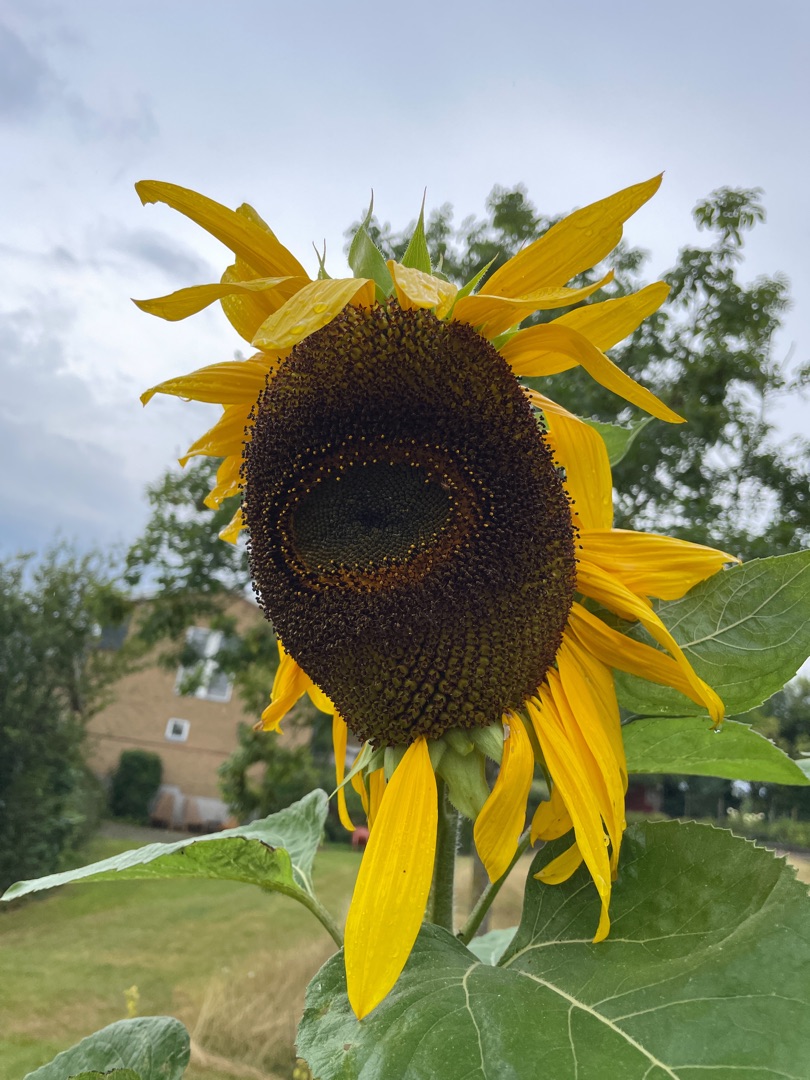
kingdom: Plantae
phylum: Tracheophyta
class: Magnoliopsida
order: Asterales
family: Asteraceae
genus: Helianthus
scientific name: Helianthus annuus
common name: Solsikke
